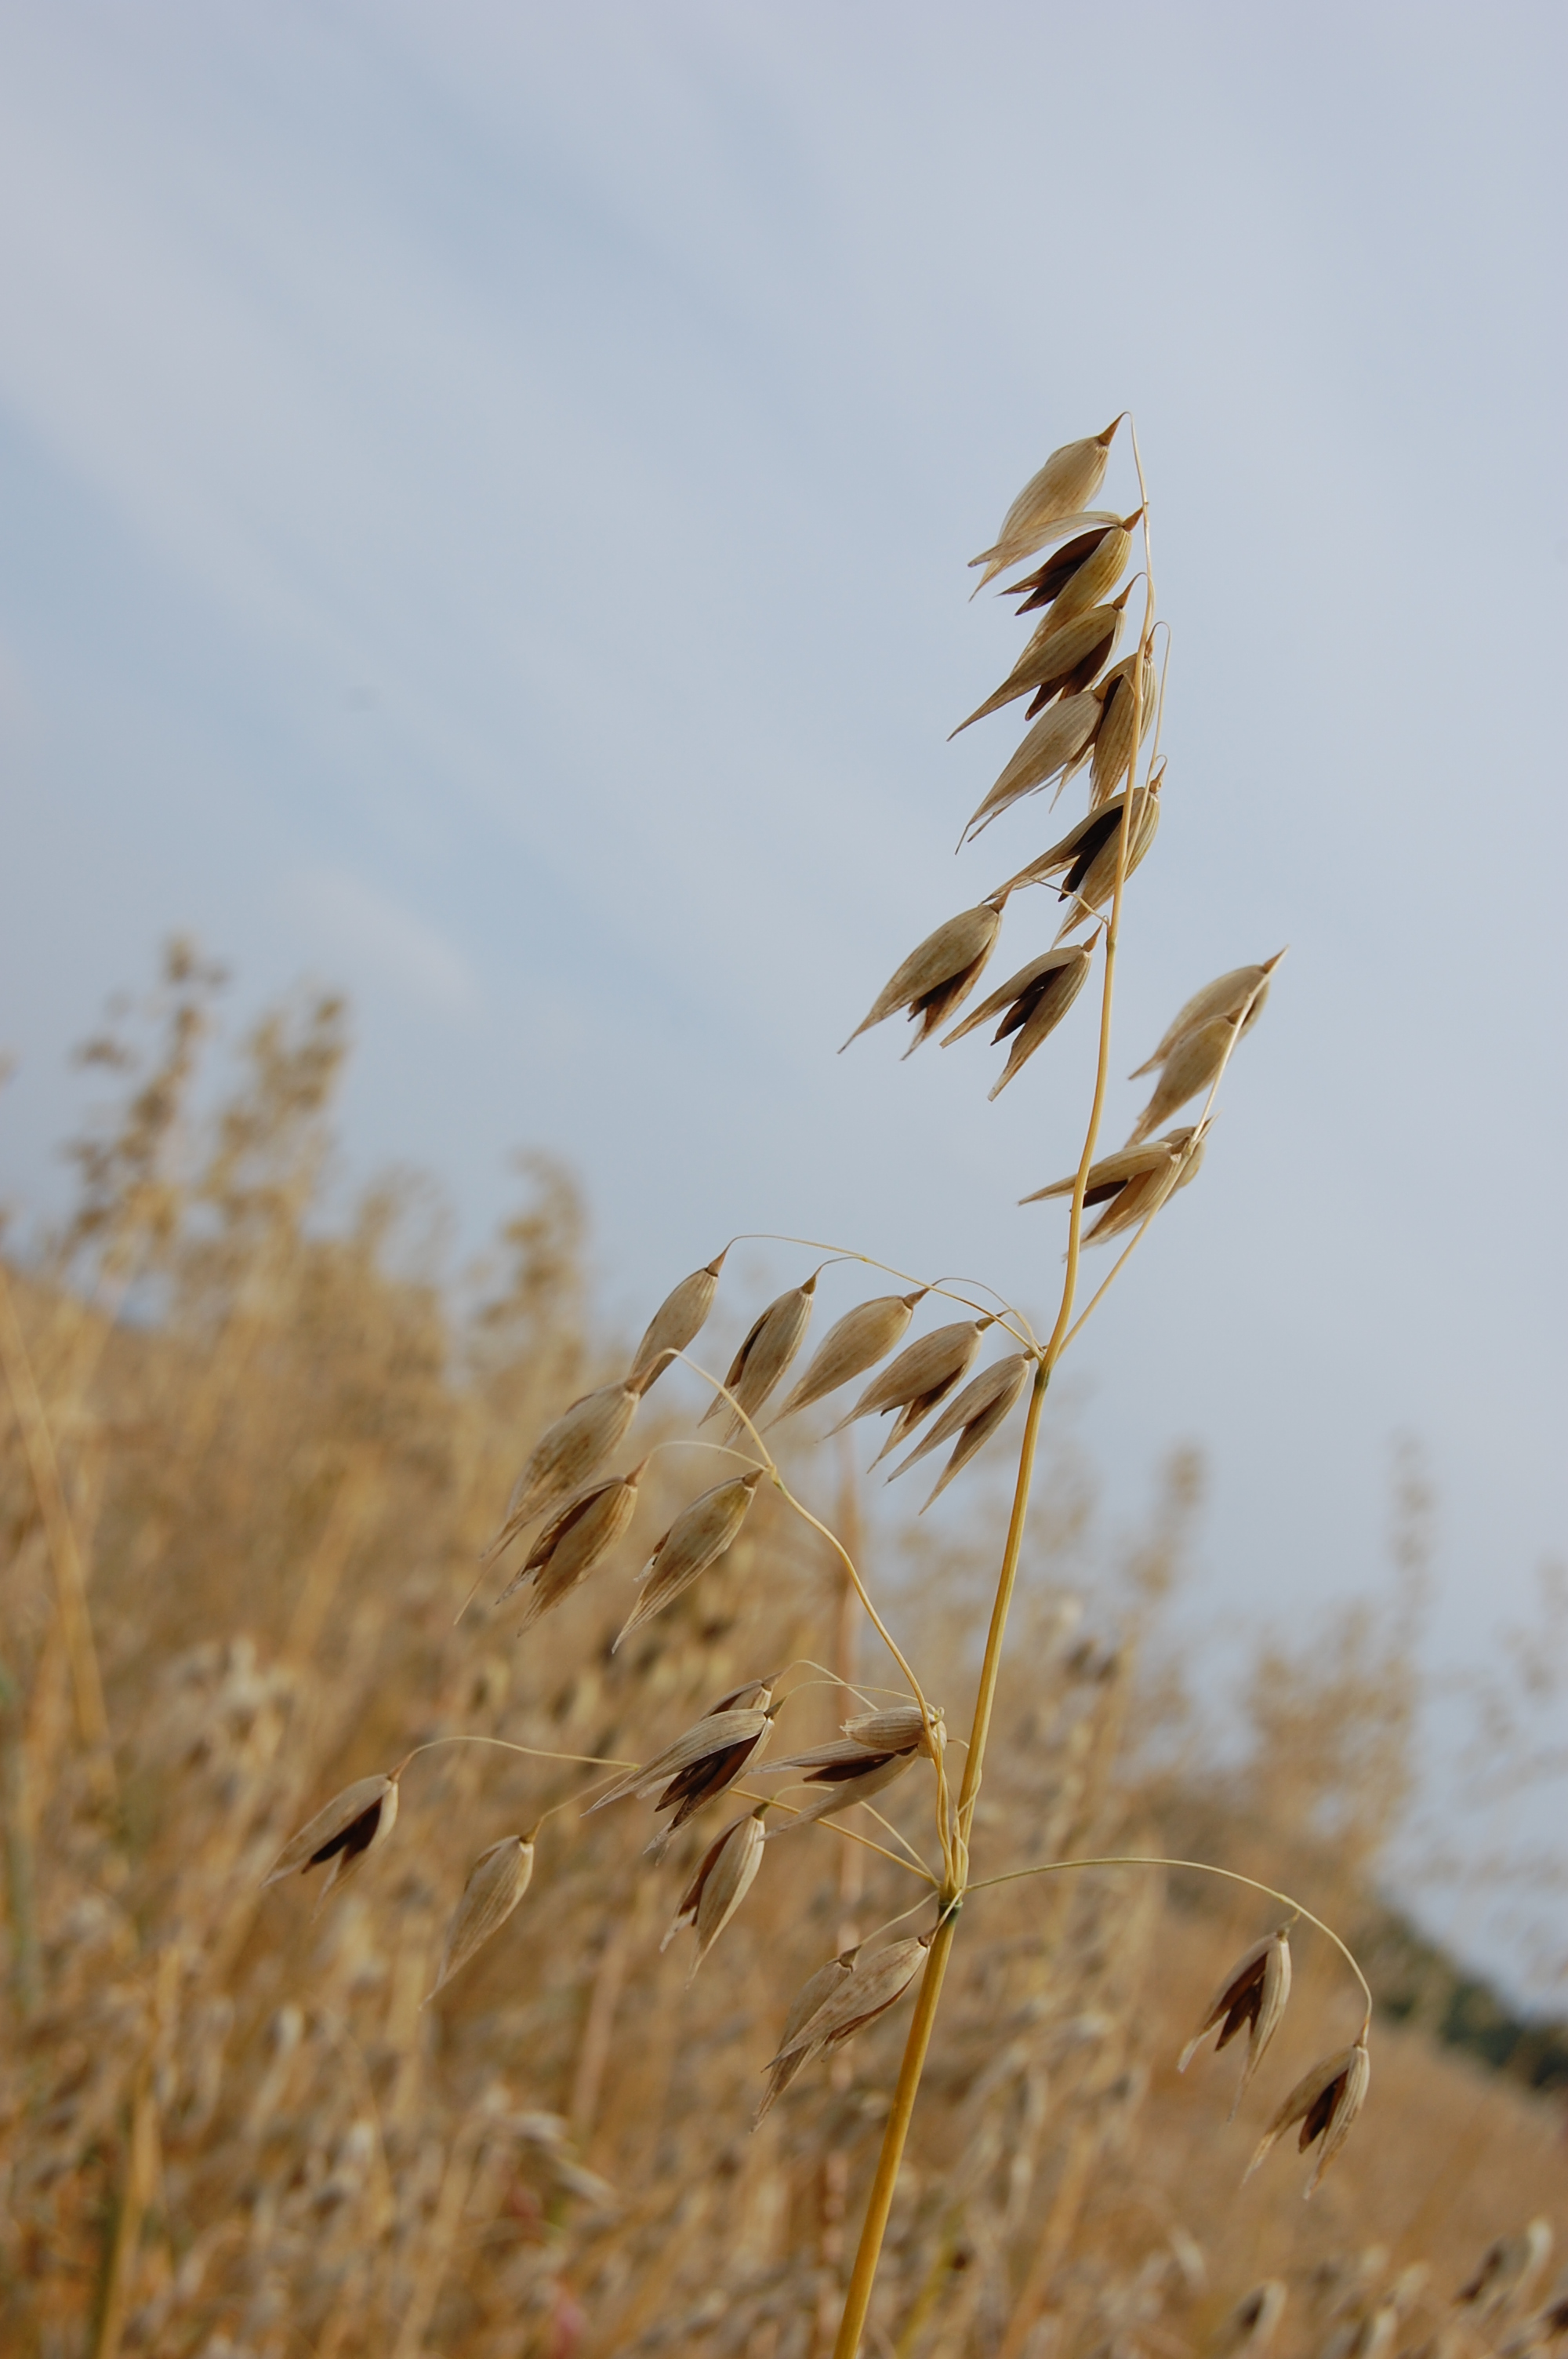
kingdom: Plantae
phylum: Tracheophyta
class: Liliopsida
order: Poales
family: Poaceae
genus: Avena
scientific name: Avena sativa
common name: Oat
